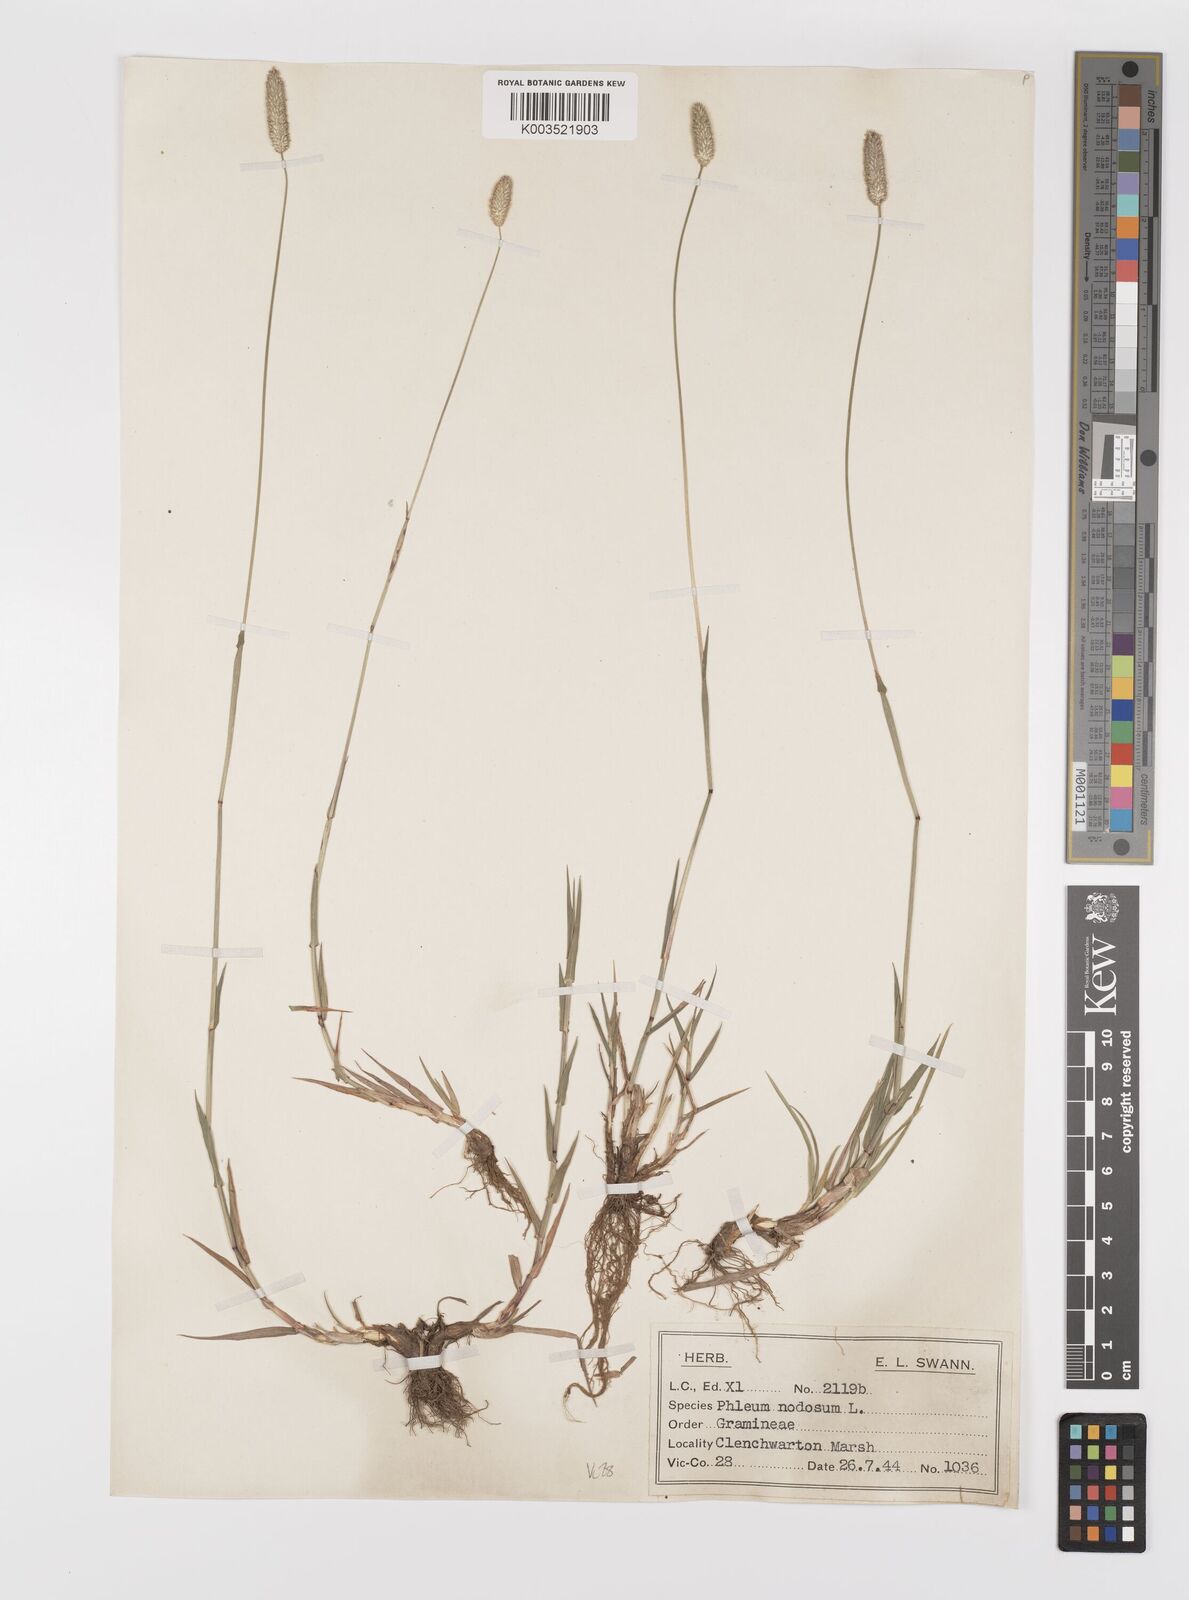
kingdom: Plantae
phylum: Tracheophyta
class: Liliopsida
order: Poales
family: Poaceae
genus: Phleum
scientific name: Phleum bertolonii
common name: Smaller cat's-tail
